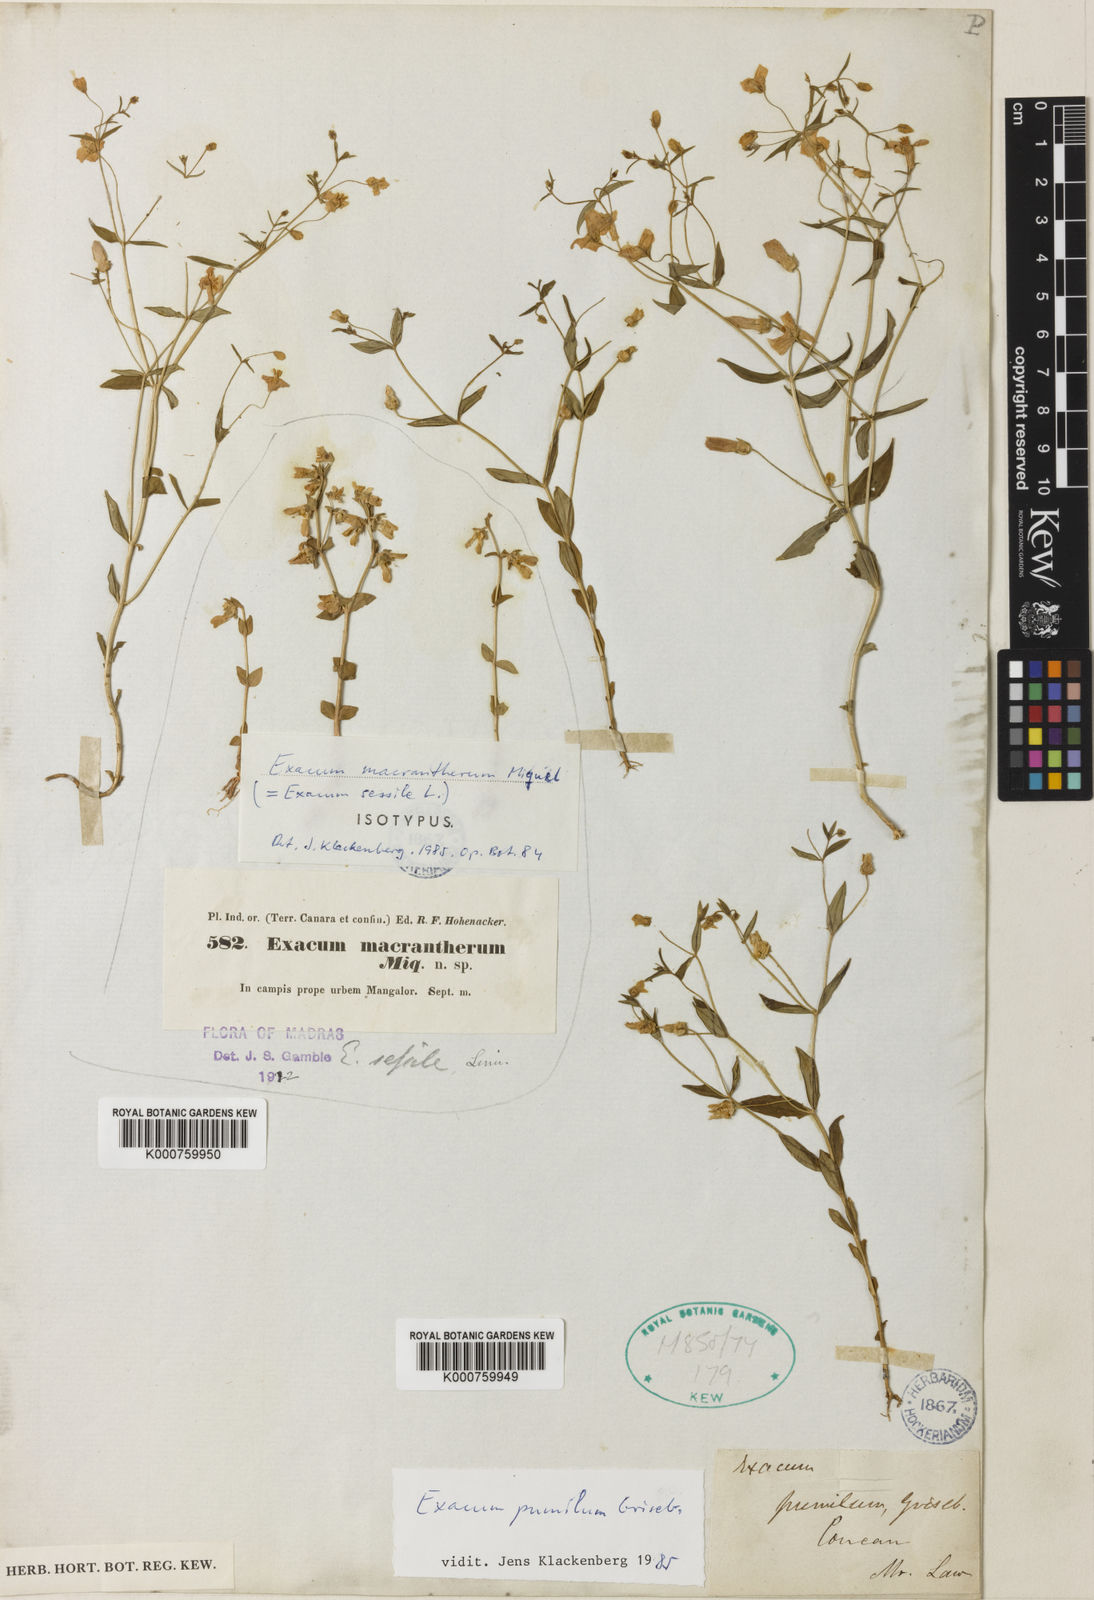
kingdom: Plantae
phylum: Tracheophyta
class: Magnoliopsida
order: Gentianales
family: Gentianaceae
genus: Exacum
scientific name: Exacum sessile
